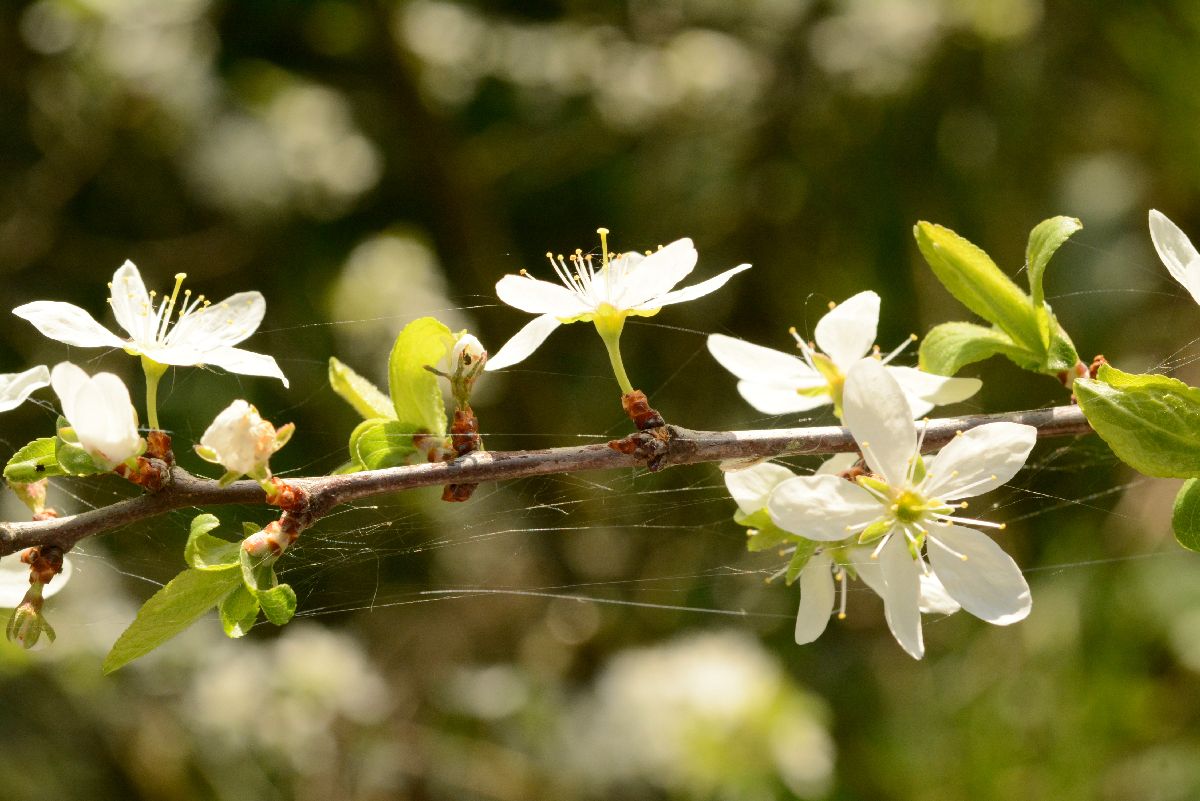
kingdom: Plantae
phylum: Tracheophyta
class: Magnoliopsida
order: Rosales
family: Rosaceae
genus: Prunus
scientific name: Prunus spinosa
